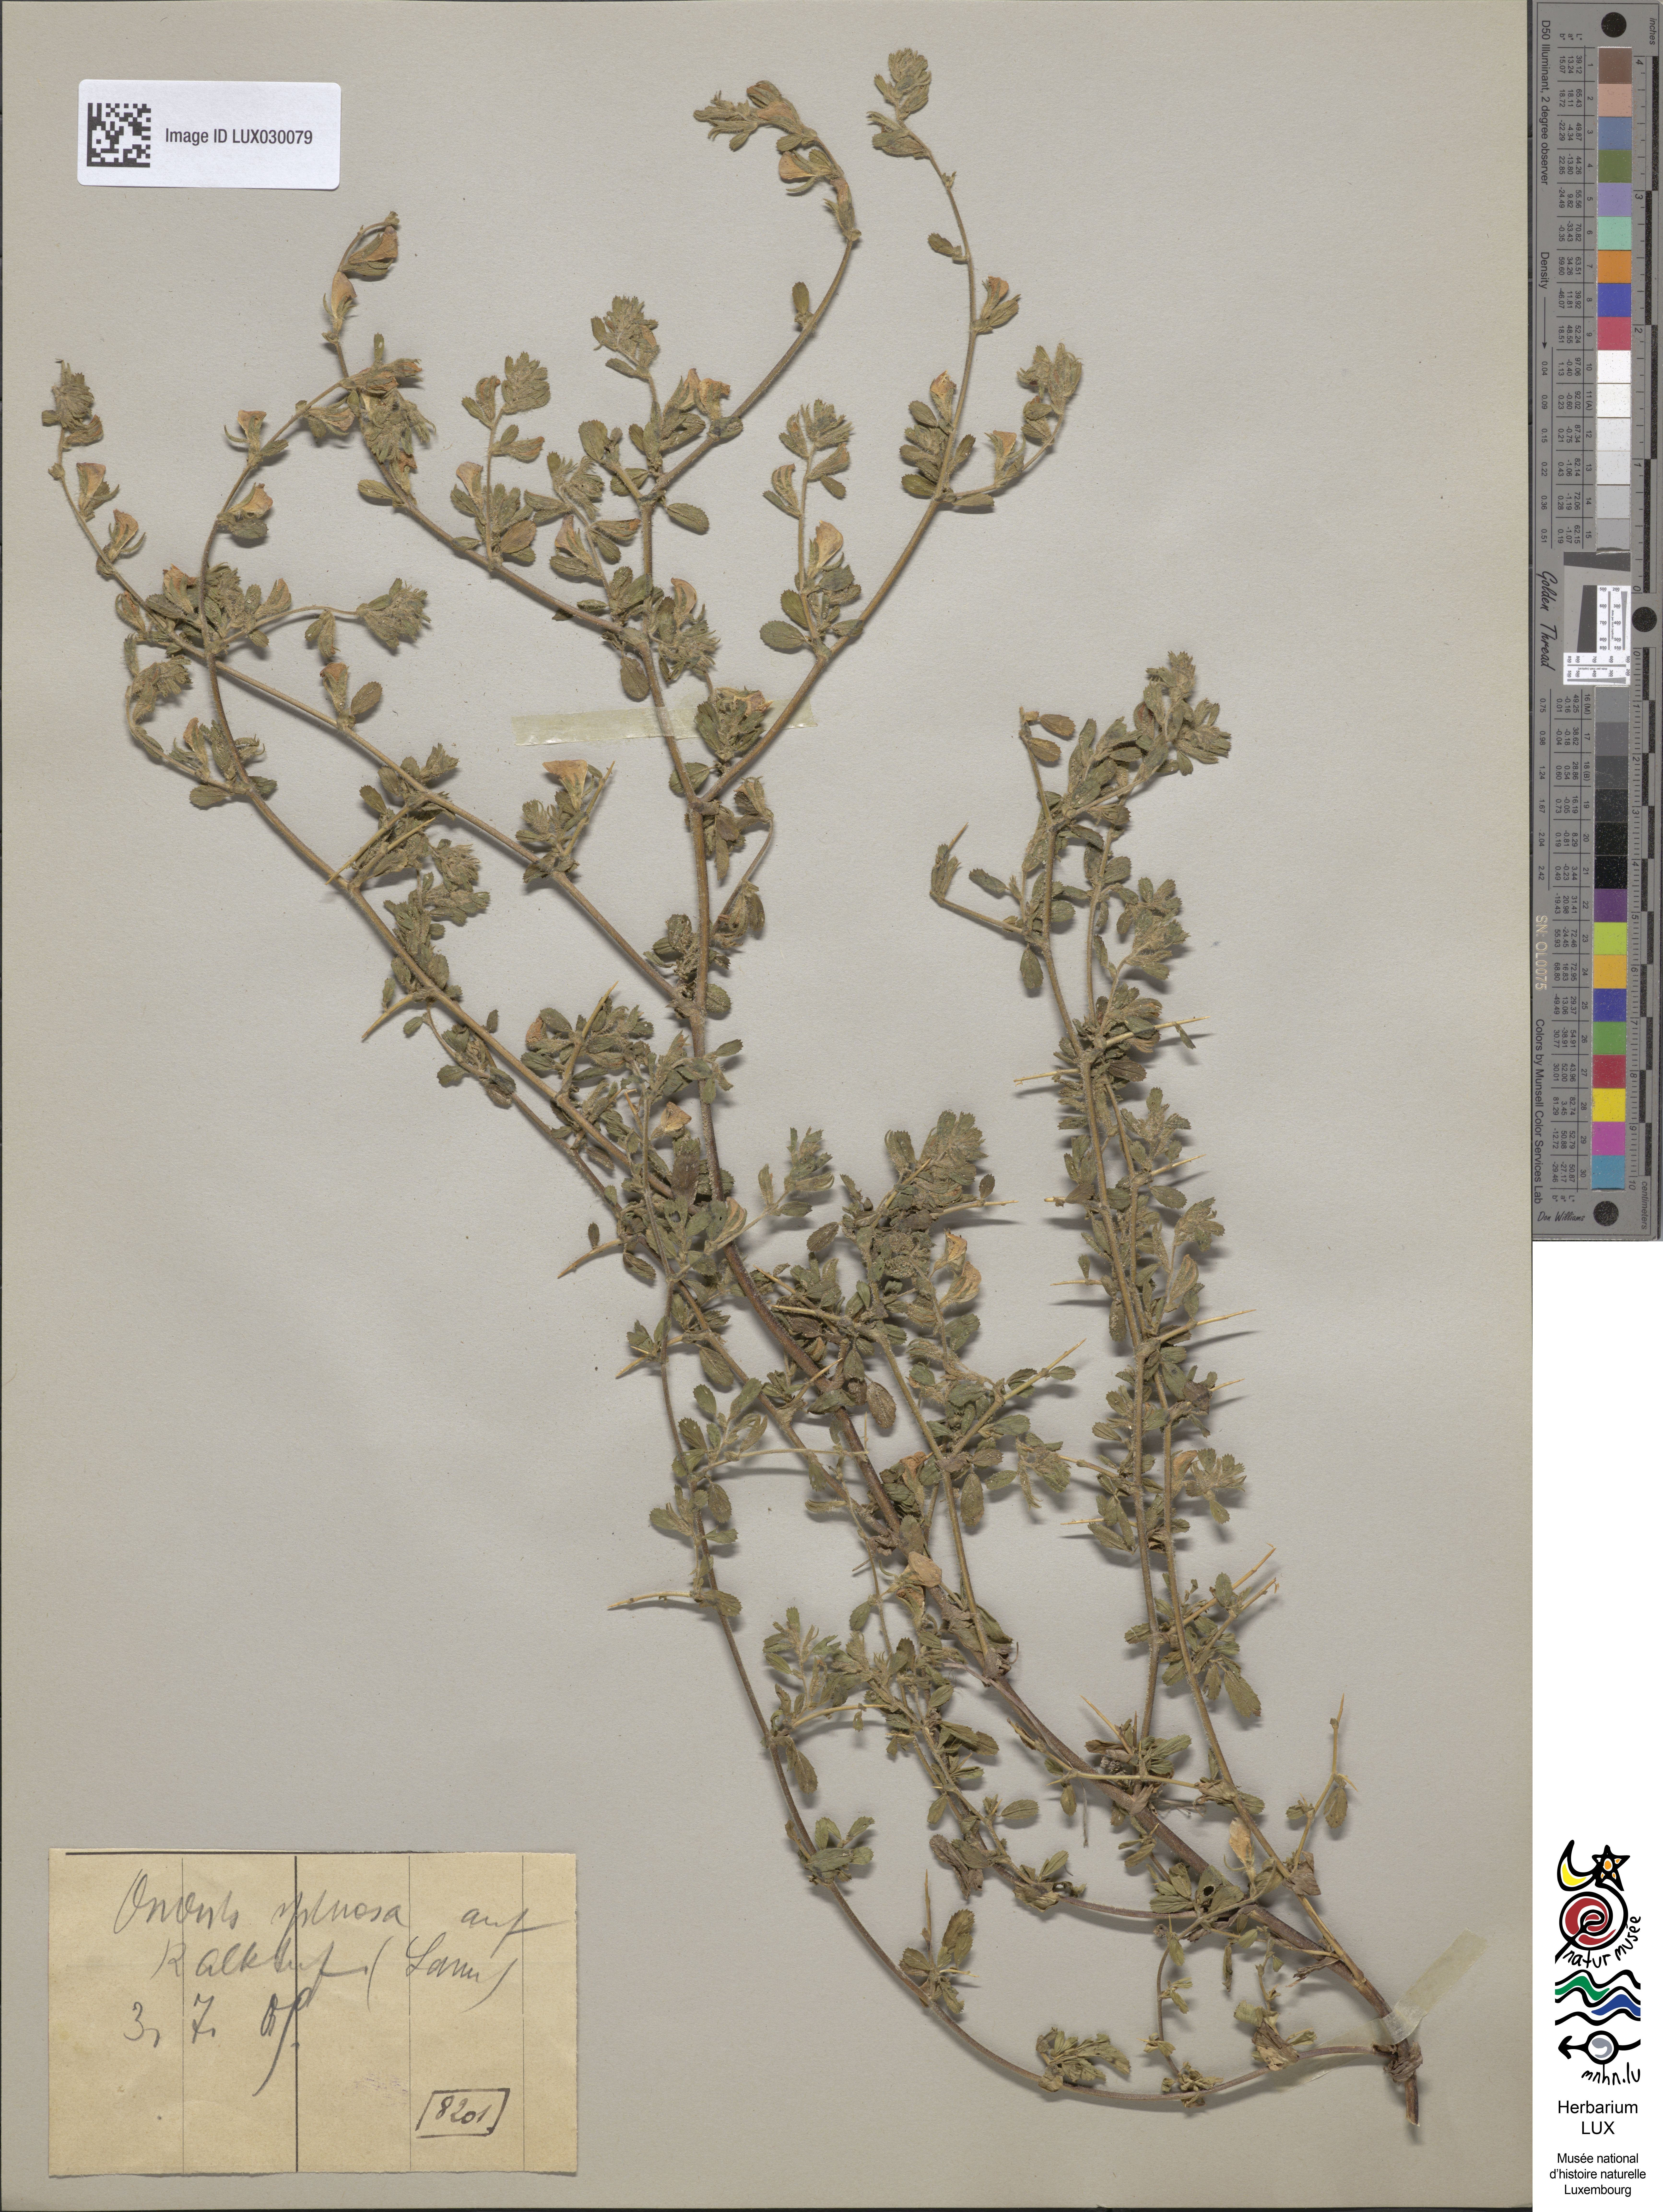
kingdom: Plantae
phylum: Tracheophyta
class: Magnoliopsida
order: Fabales
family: Fabaceae
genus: Ononis
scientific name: Ononis spinosa
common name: Spiny restharrow
